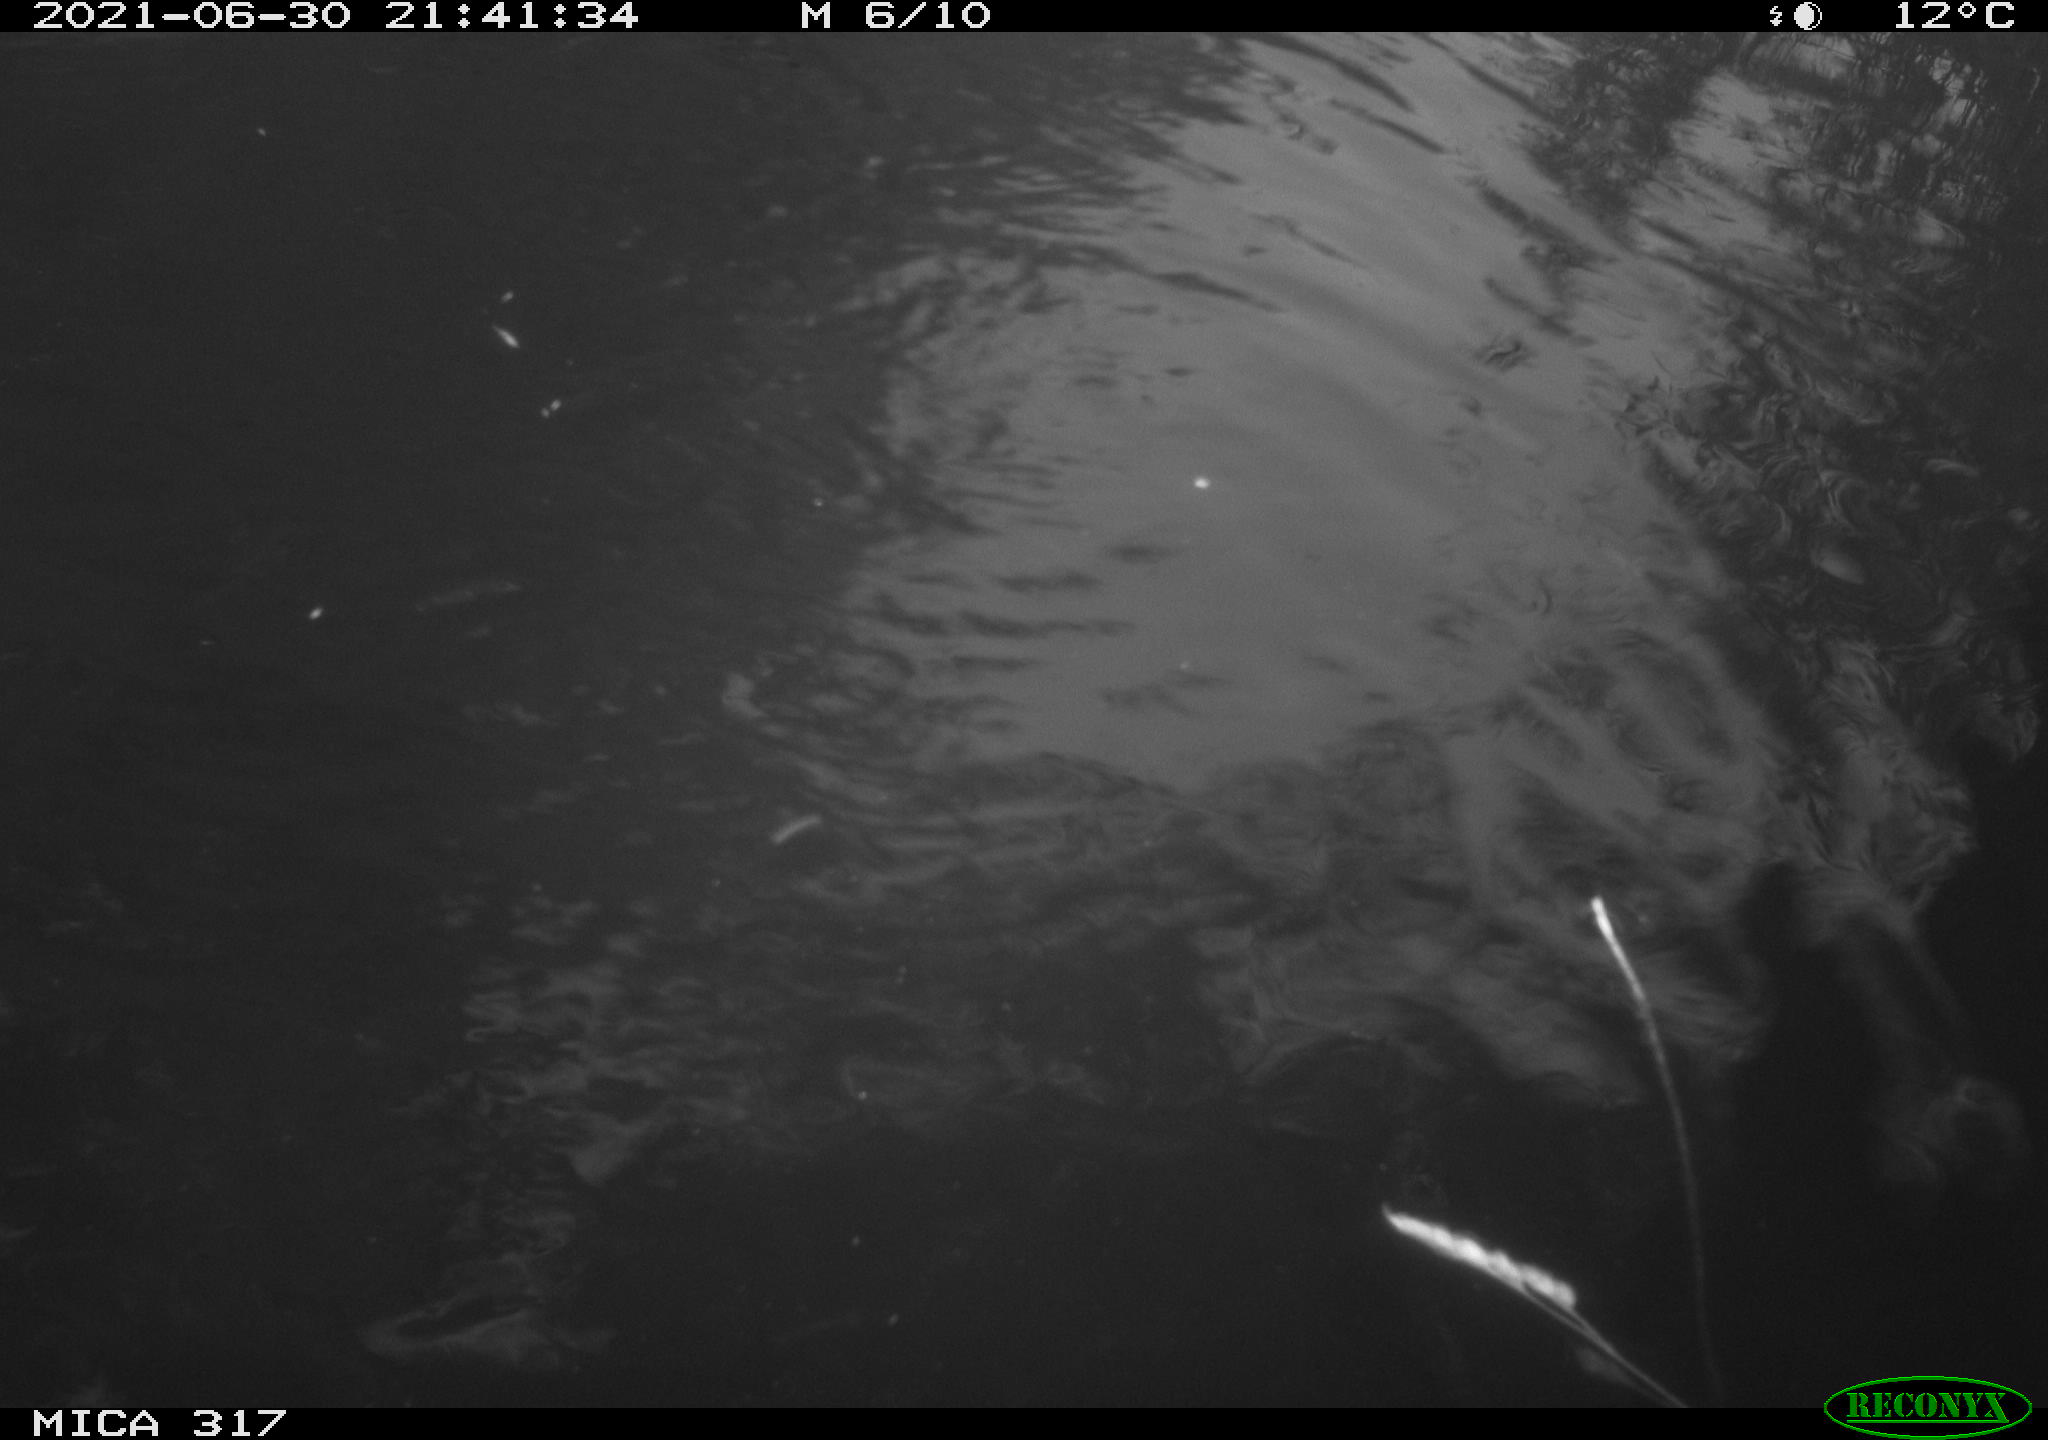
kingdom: Animalia
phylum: Chordata
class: Aves
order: Anseriformes
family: Anatidae
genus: Mareca
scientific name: Mareca strepera
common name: Gadwall
